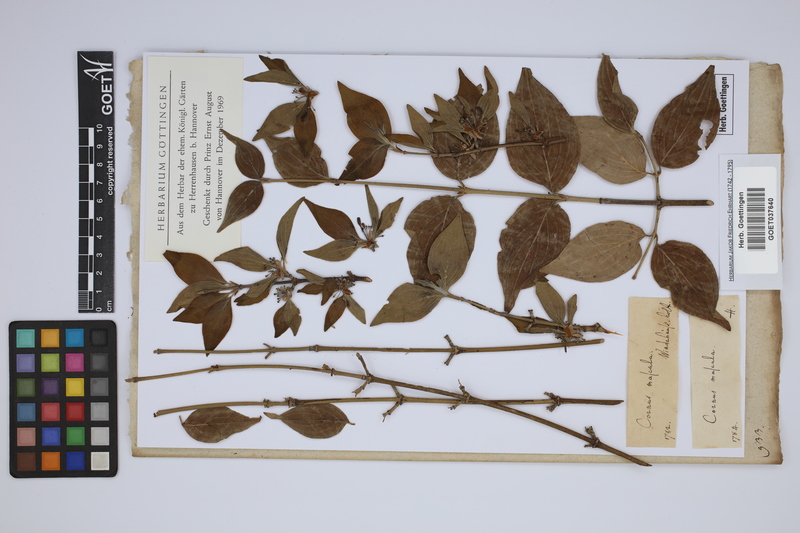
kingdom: Plantae
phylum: Tracheophyta
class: Magnoliopsida
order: Cornales
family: Cornaceae
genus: Cornus
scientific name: Cornus mas
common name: Cornelian-cherry
